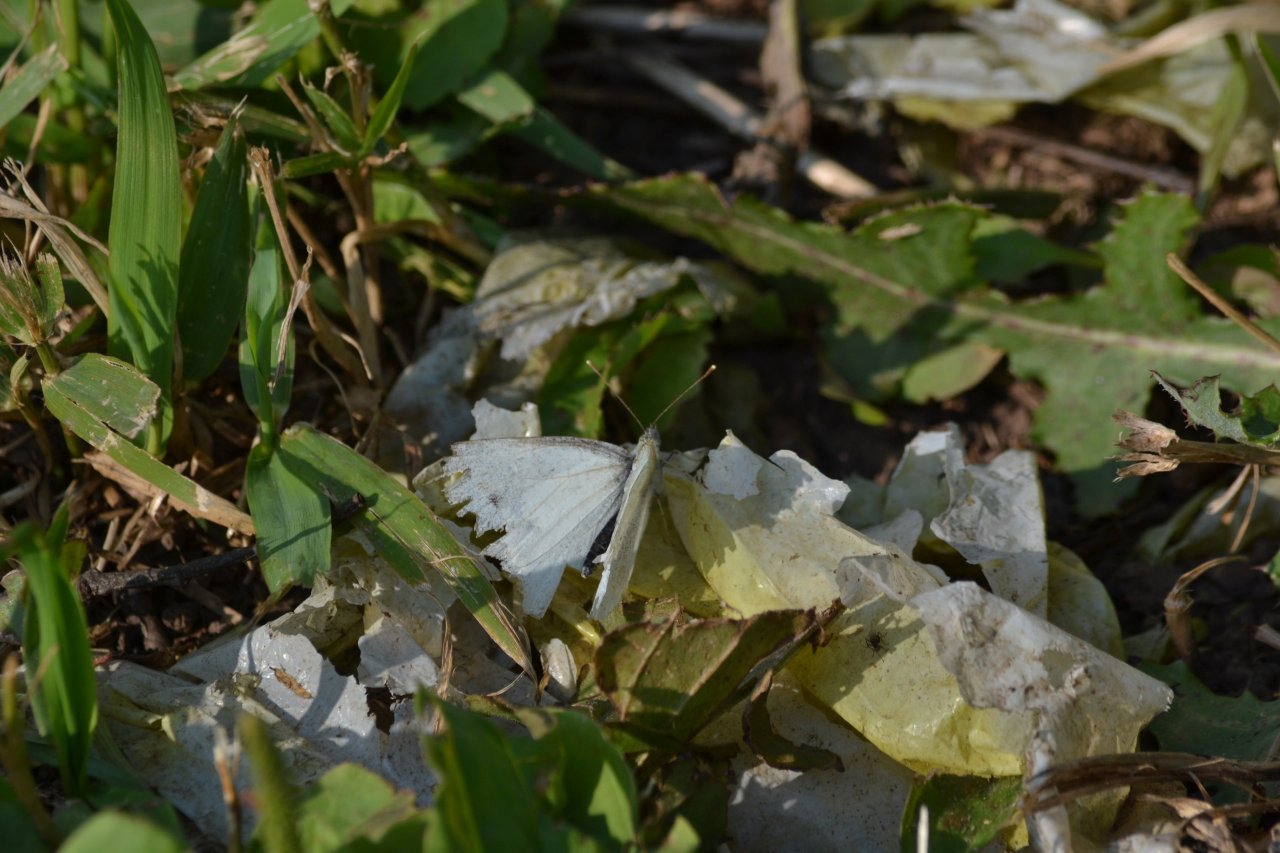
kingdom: Animalia
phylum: Arthropoda
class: Insecta
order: Lepidoptera
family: Pieridae
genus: Pieris
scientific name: Pieris rapae
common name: Cabbage White
